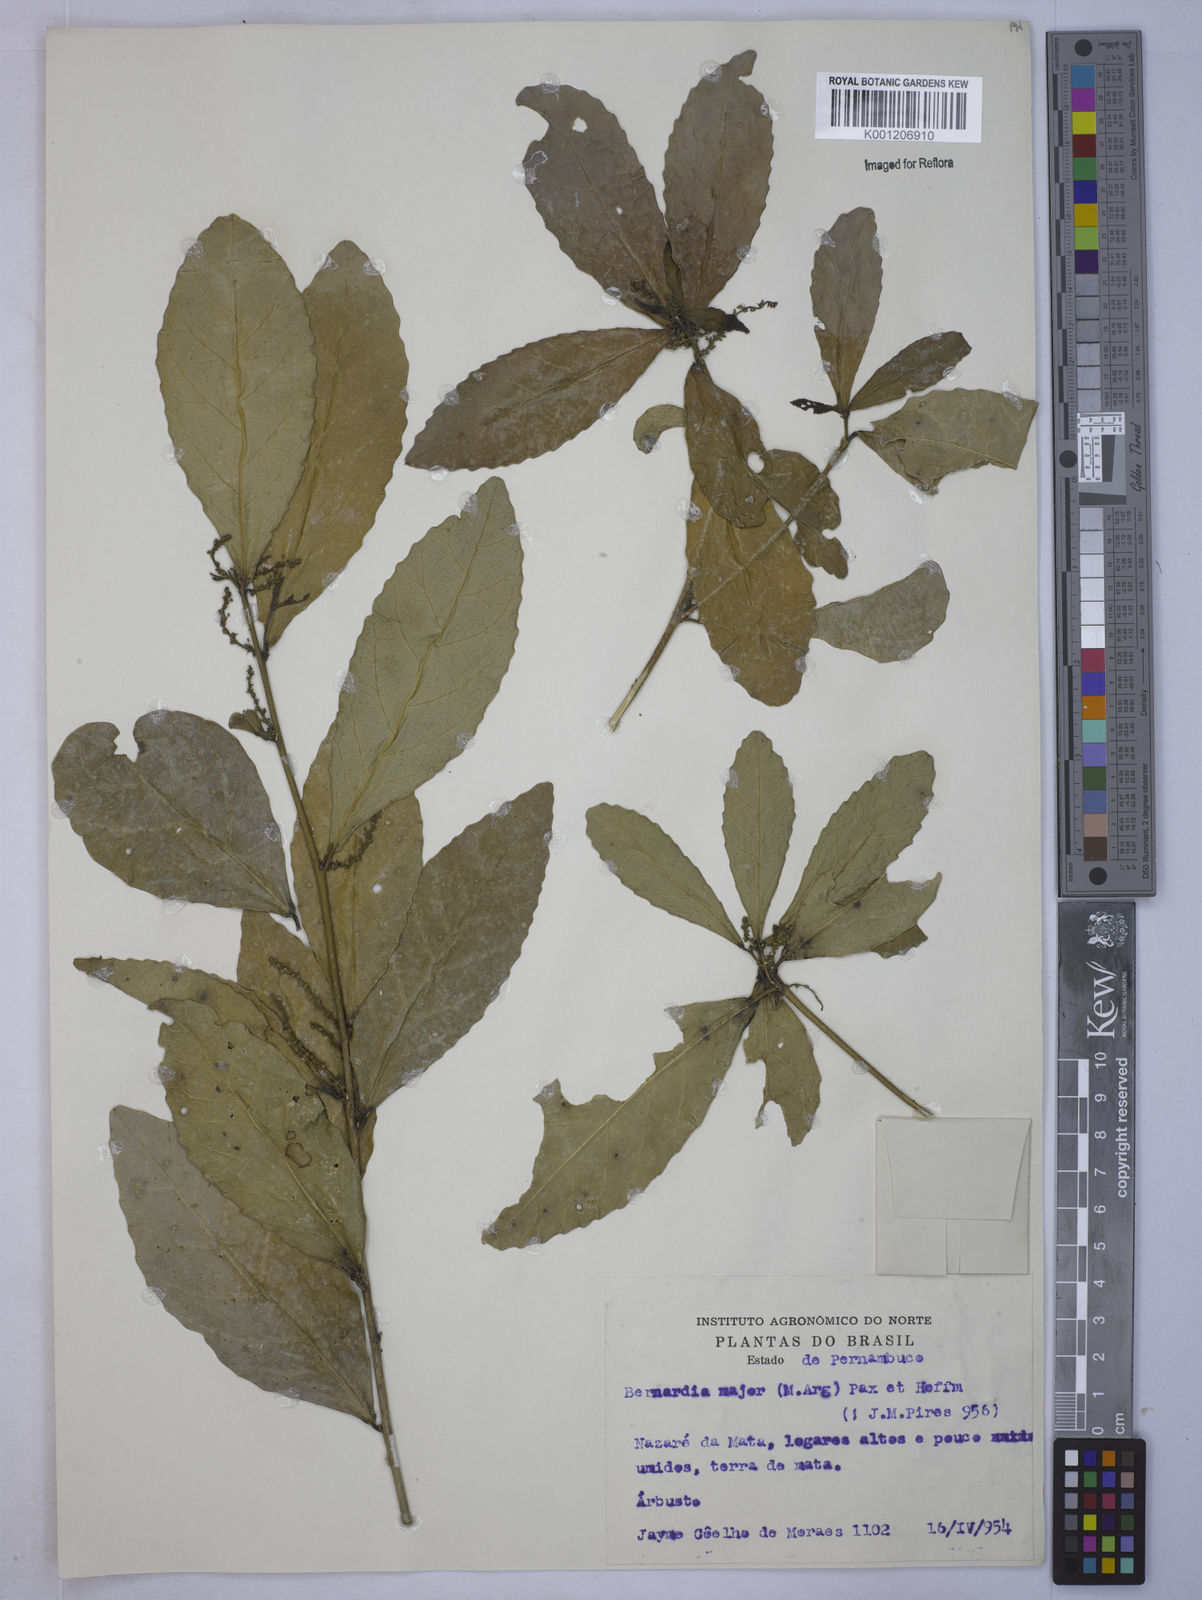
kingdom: Plantae
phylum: Tracheophyta
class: Magnoliopsida
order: Malpighiales
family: Euphorbiaceae
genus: Bernardia
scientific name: Bernardia tamanduana
